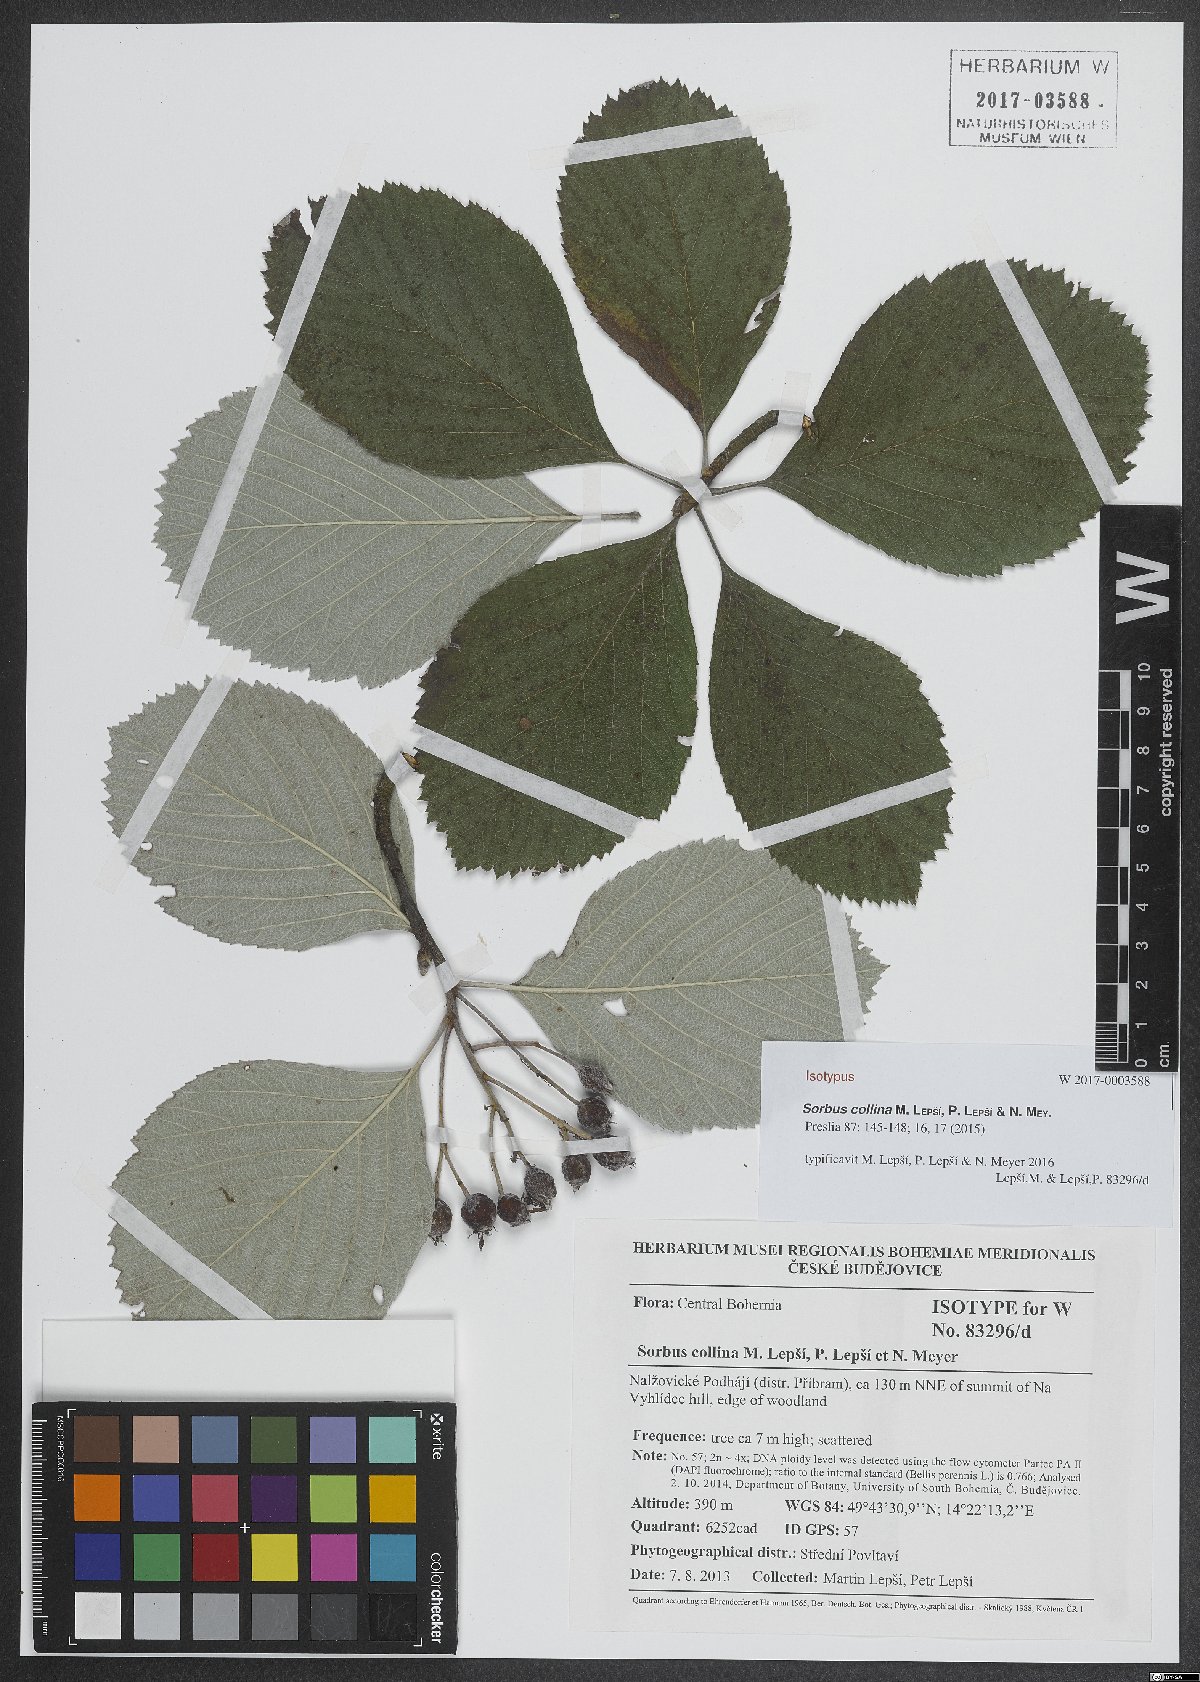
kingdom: Plantae
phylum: Tracheophyta
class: Magnoliopsida
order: Rosales
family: Rosaceae
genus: Aria
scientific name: Aria collina
